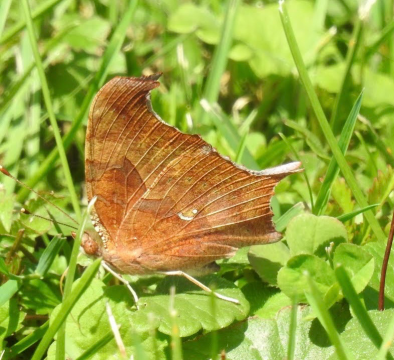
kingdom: Animalia
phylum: Arthropoda
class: Insecta
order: Lepidoptera
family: Nymphalidae
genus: Polygonia
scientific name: Polygonia interrogationis
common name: Question Mark
